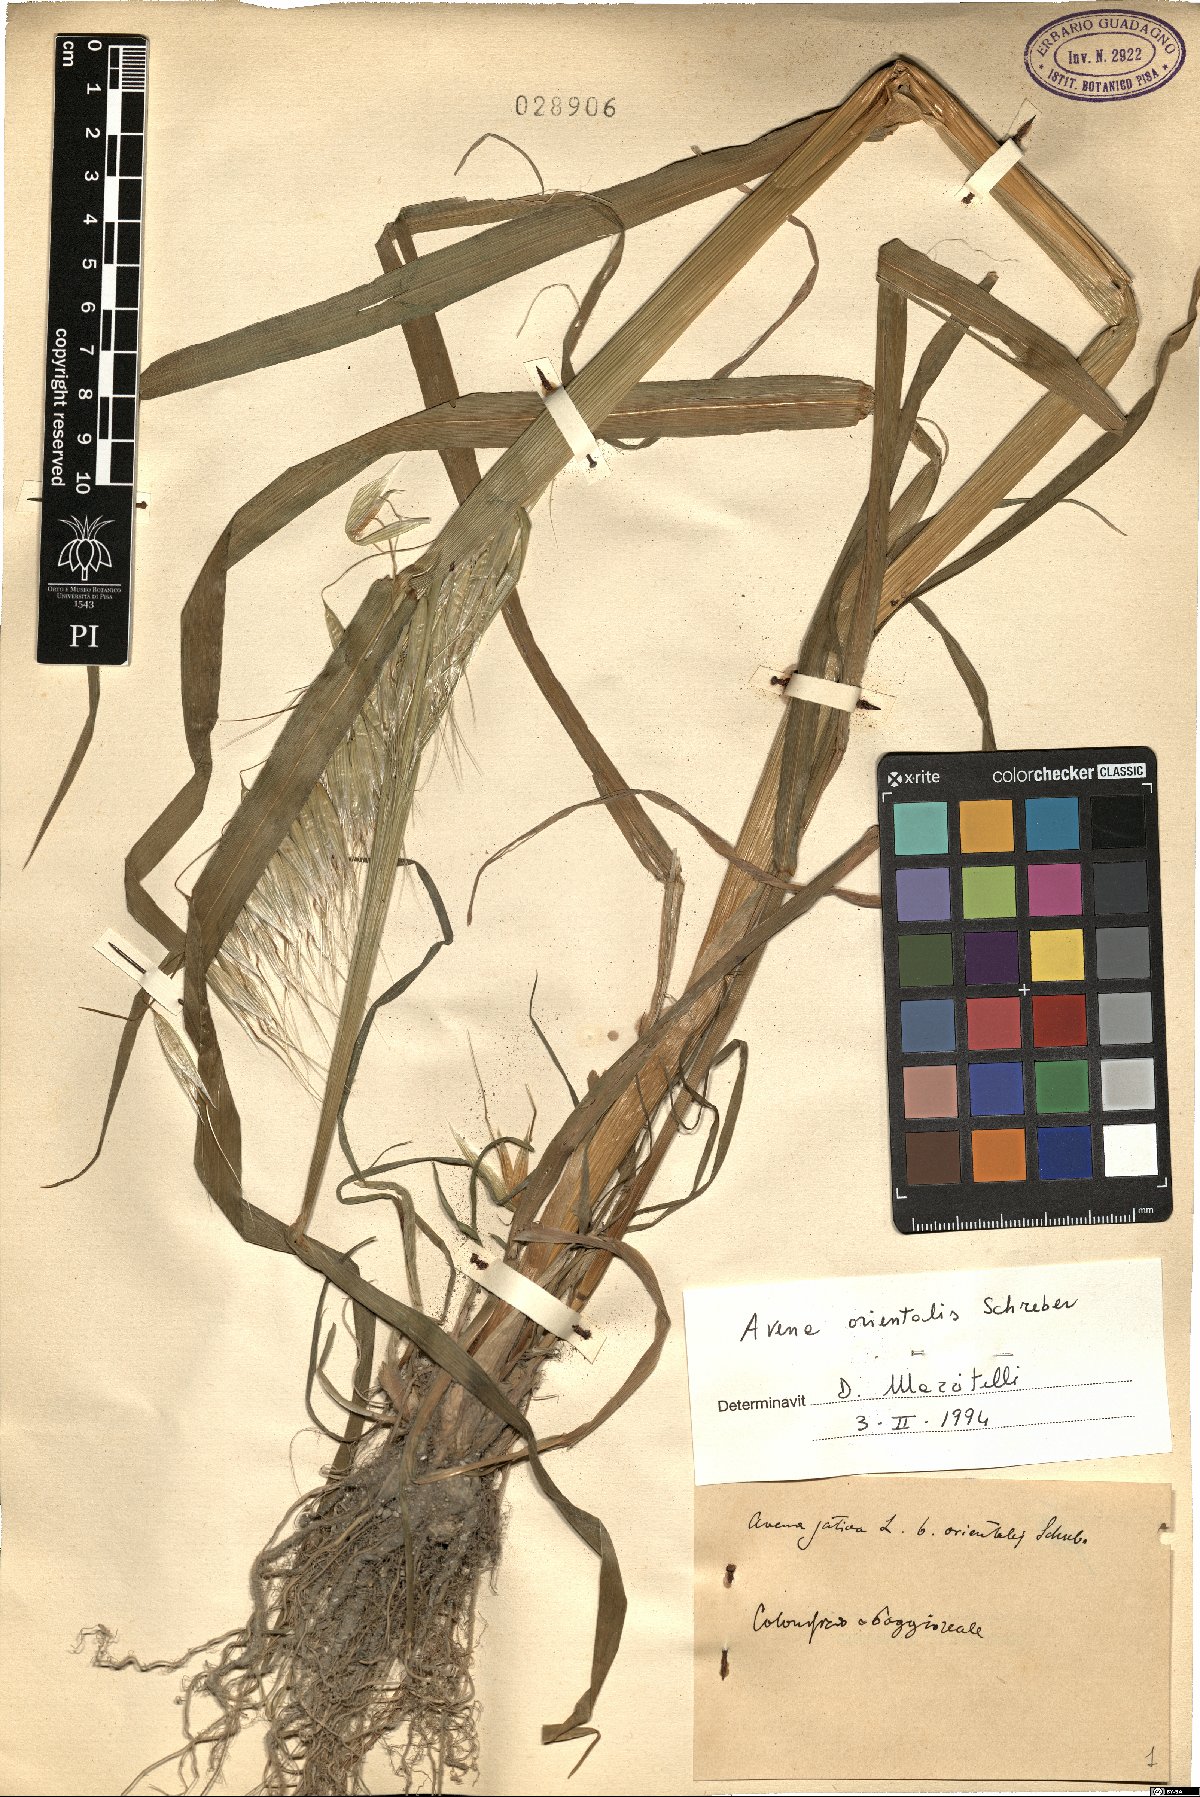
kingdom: Plantae
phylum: Tracheophyta
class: Liliopsida
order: Poales
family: Poaceae
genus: Avena
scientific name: Avena
